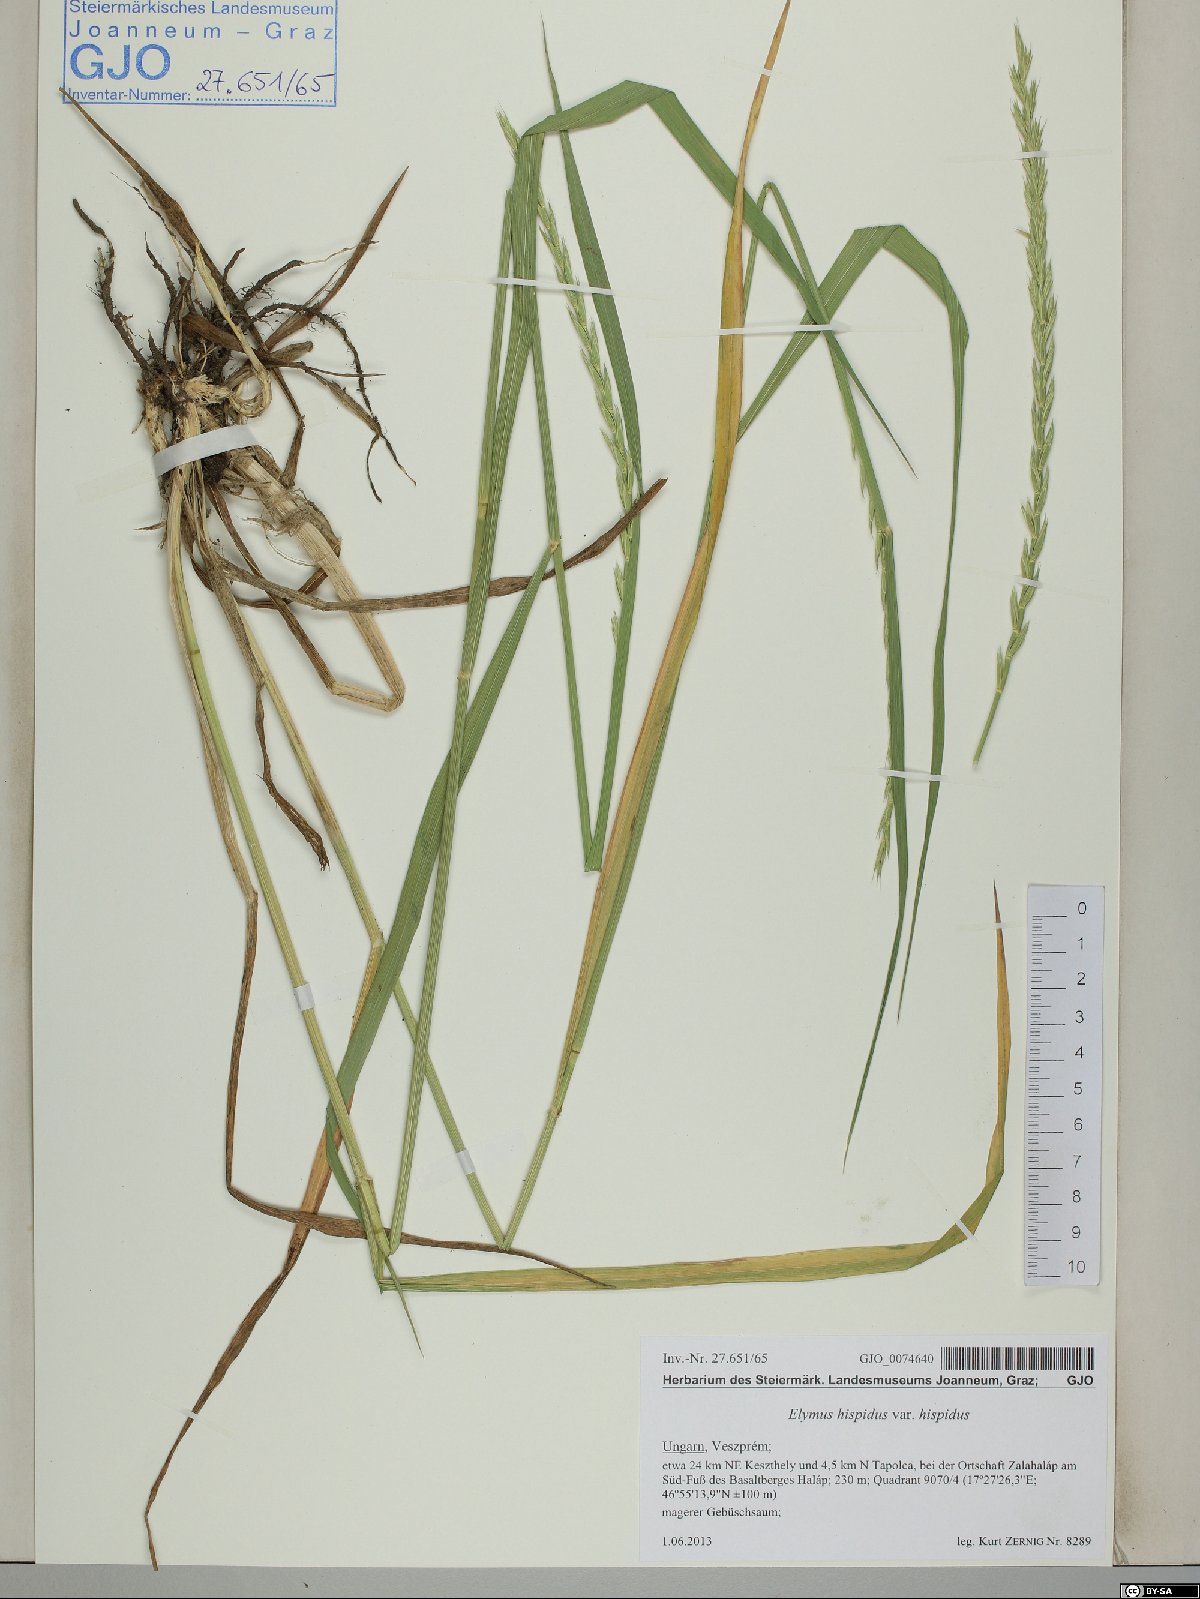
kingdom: Plantae
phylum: Tracheophyta
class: Liliopsida
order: Poales
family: Poaceae
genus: Thinopyrum
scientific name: Thinopyrum intermedium
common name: Intermediate wheatgrass
